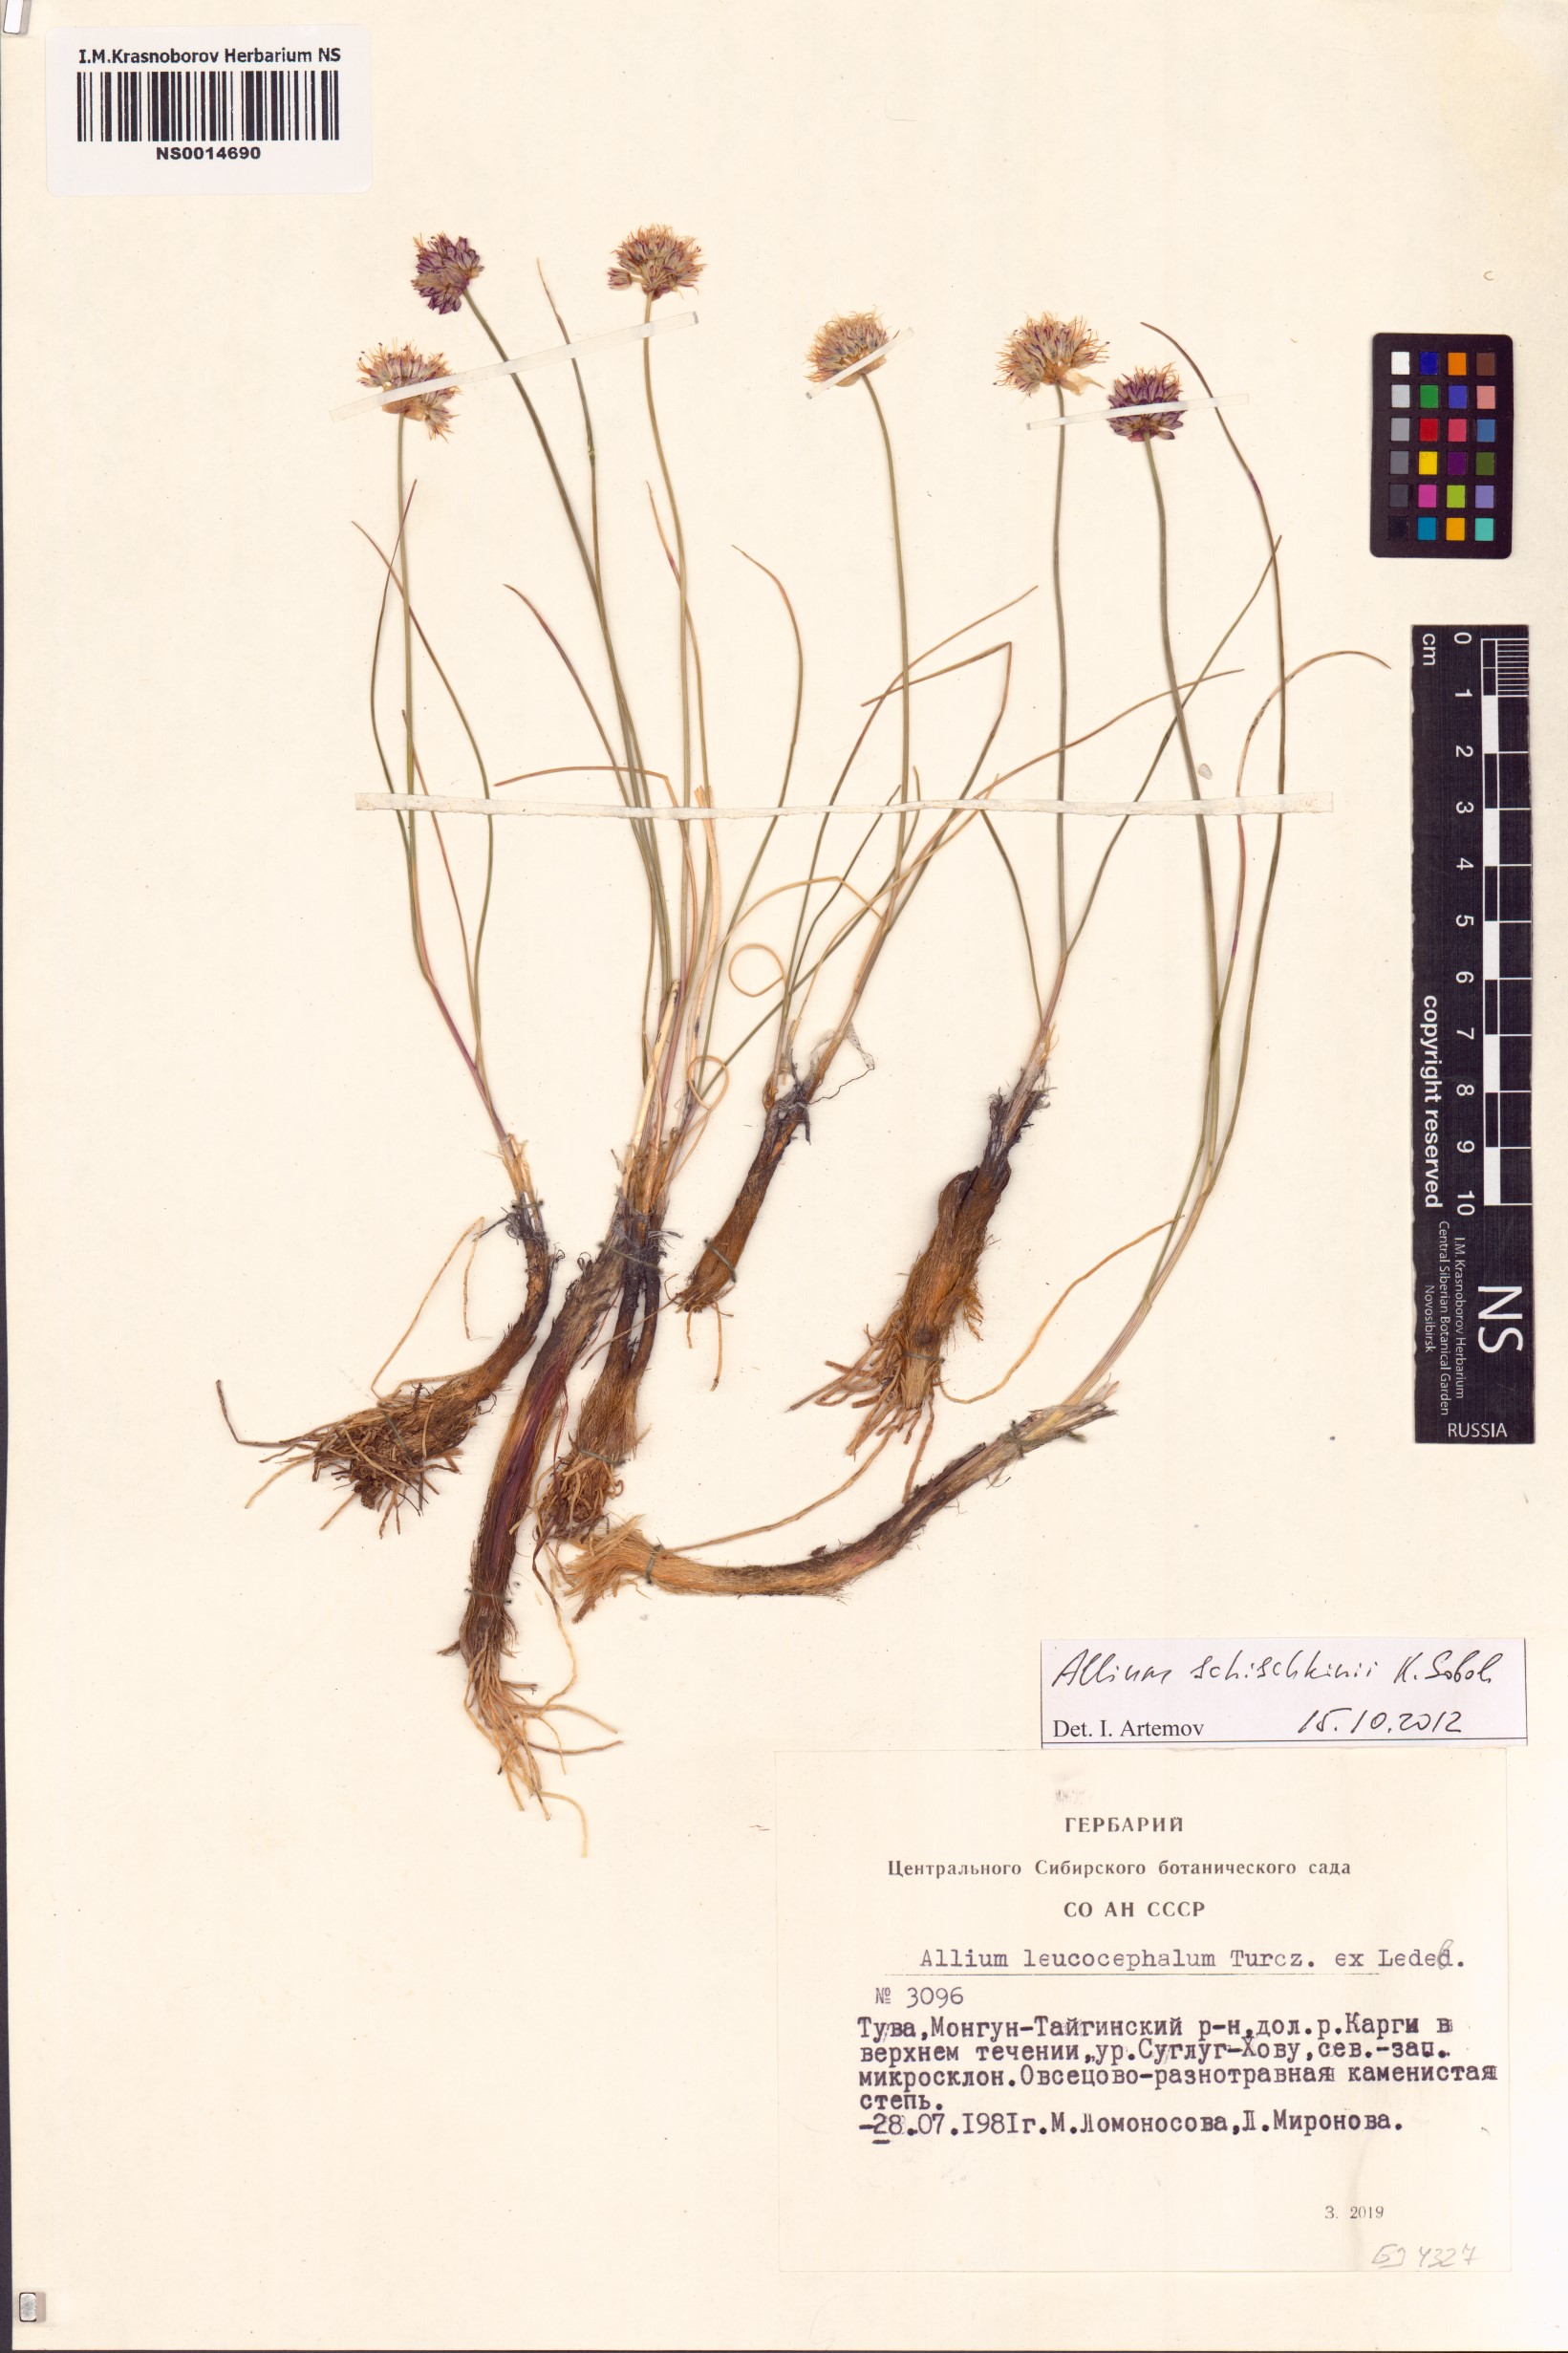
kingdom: Plantae
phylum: Tracheophyta
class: Liliopsida
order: Asparagales
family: Amaryllidaceae
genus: Allium
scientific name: Allium schischkinii
